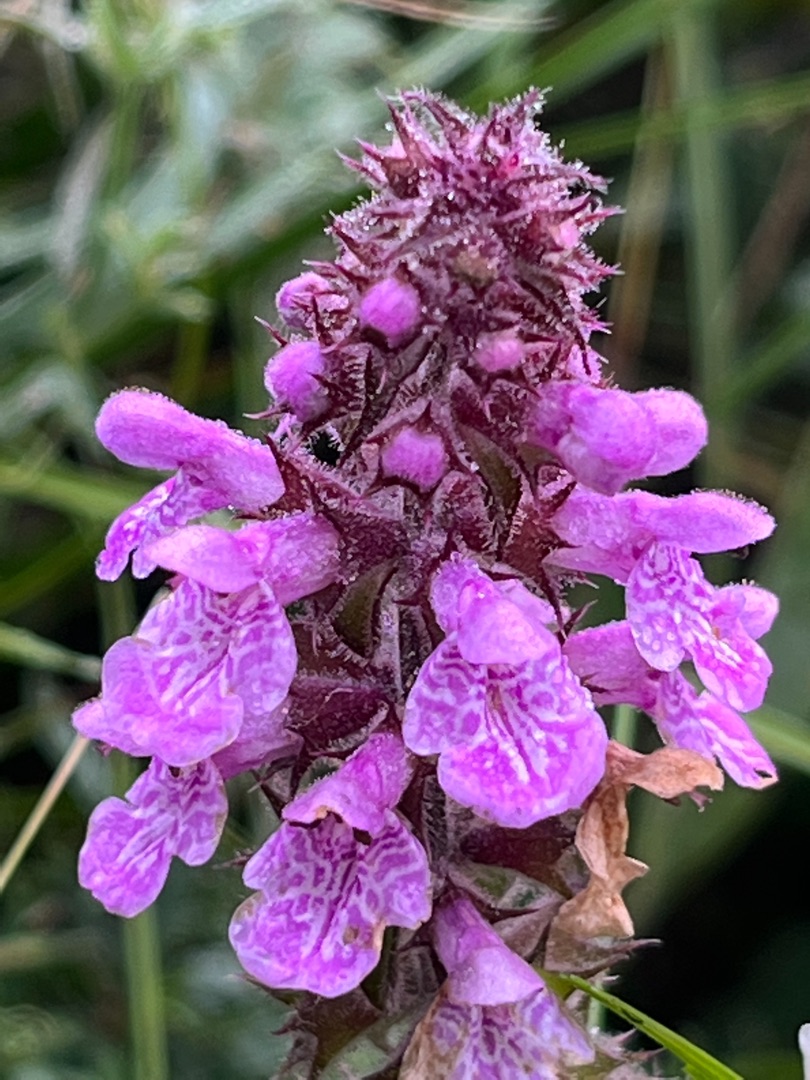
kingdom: Plantae
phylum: Tracheophyta
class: Magnoliopsida
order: Lamiales
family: Lamiaceae
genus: Stachys
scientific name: Stachys palustris
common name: Kær-galtetand
